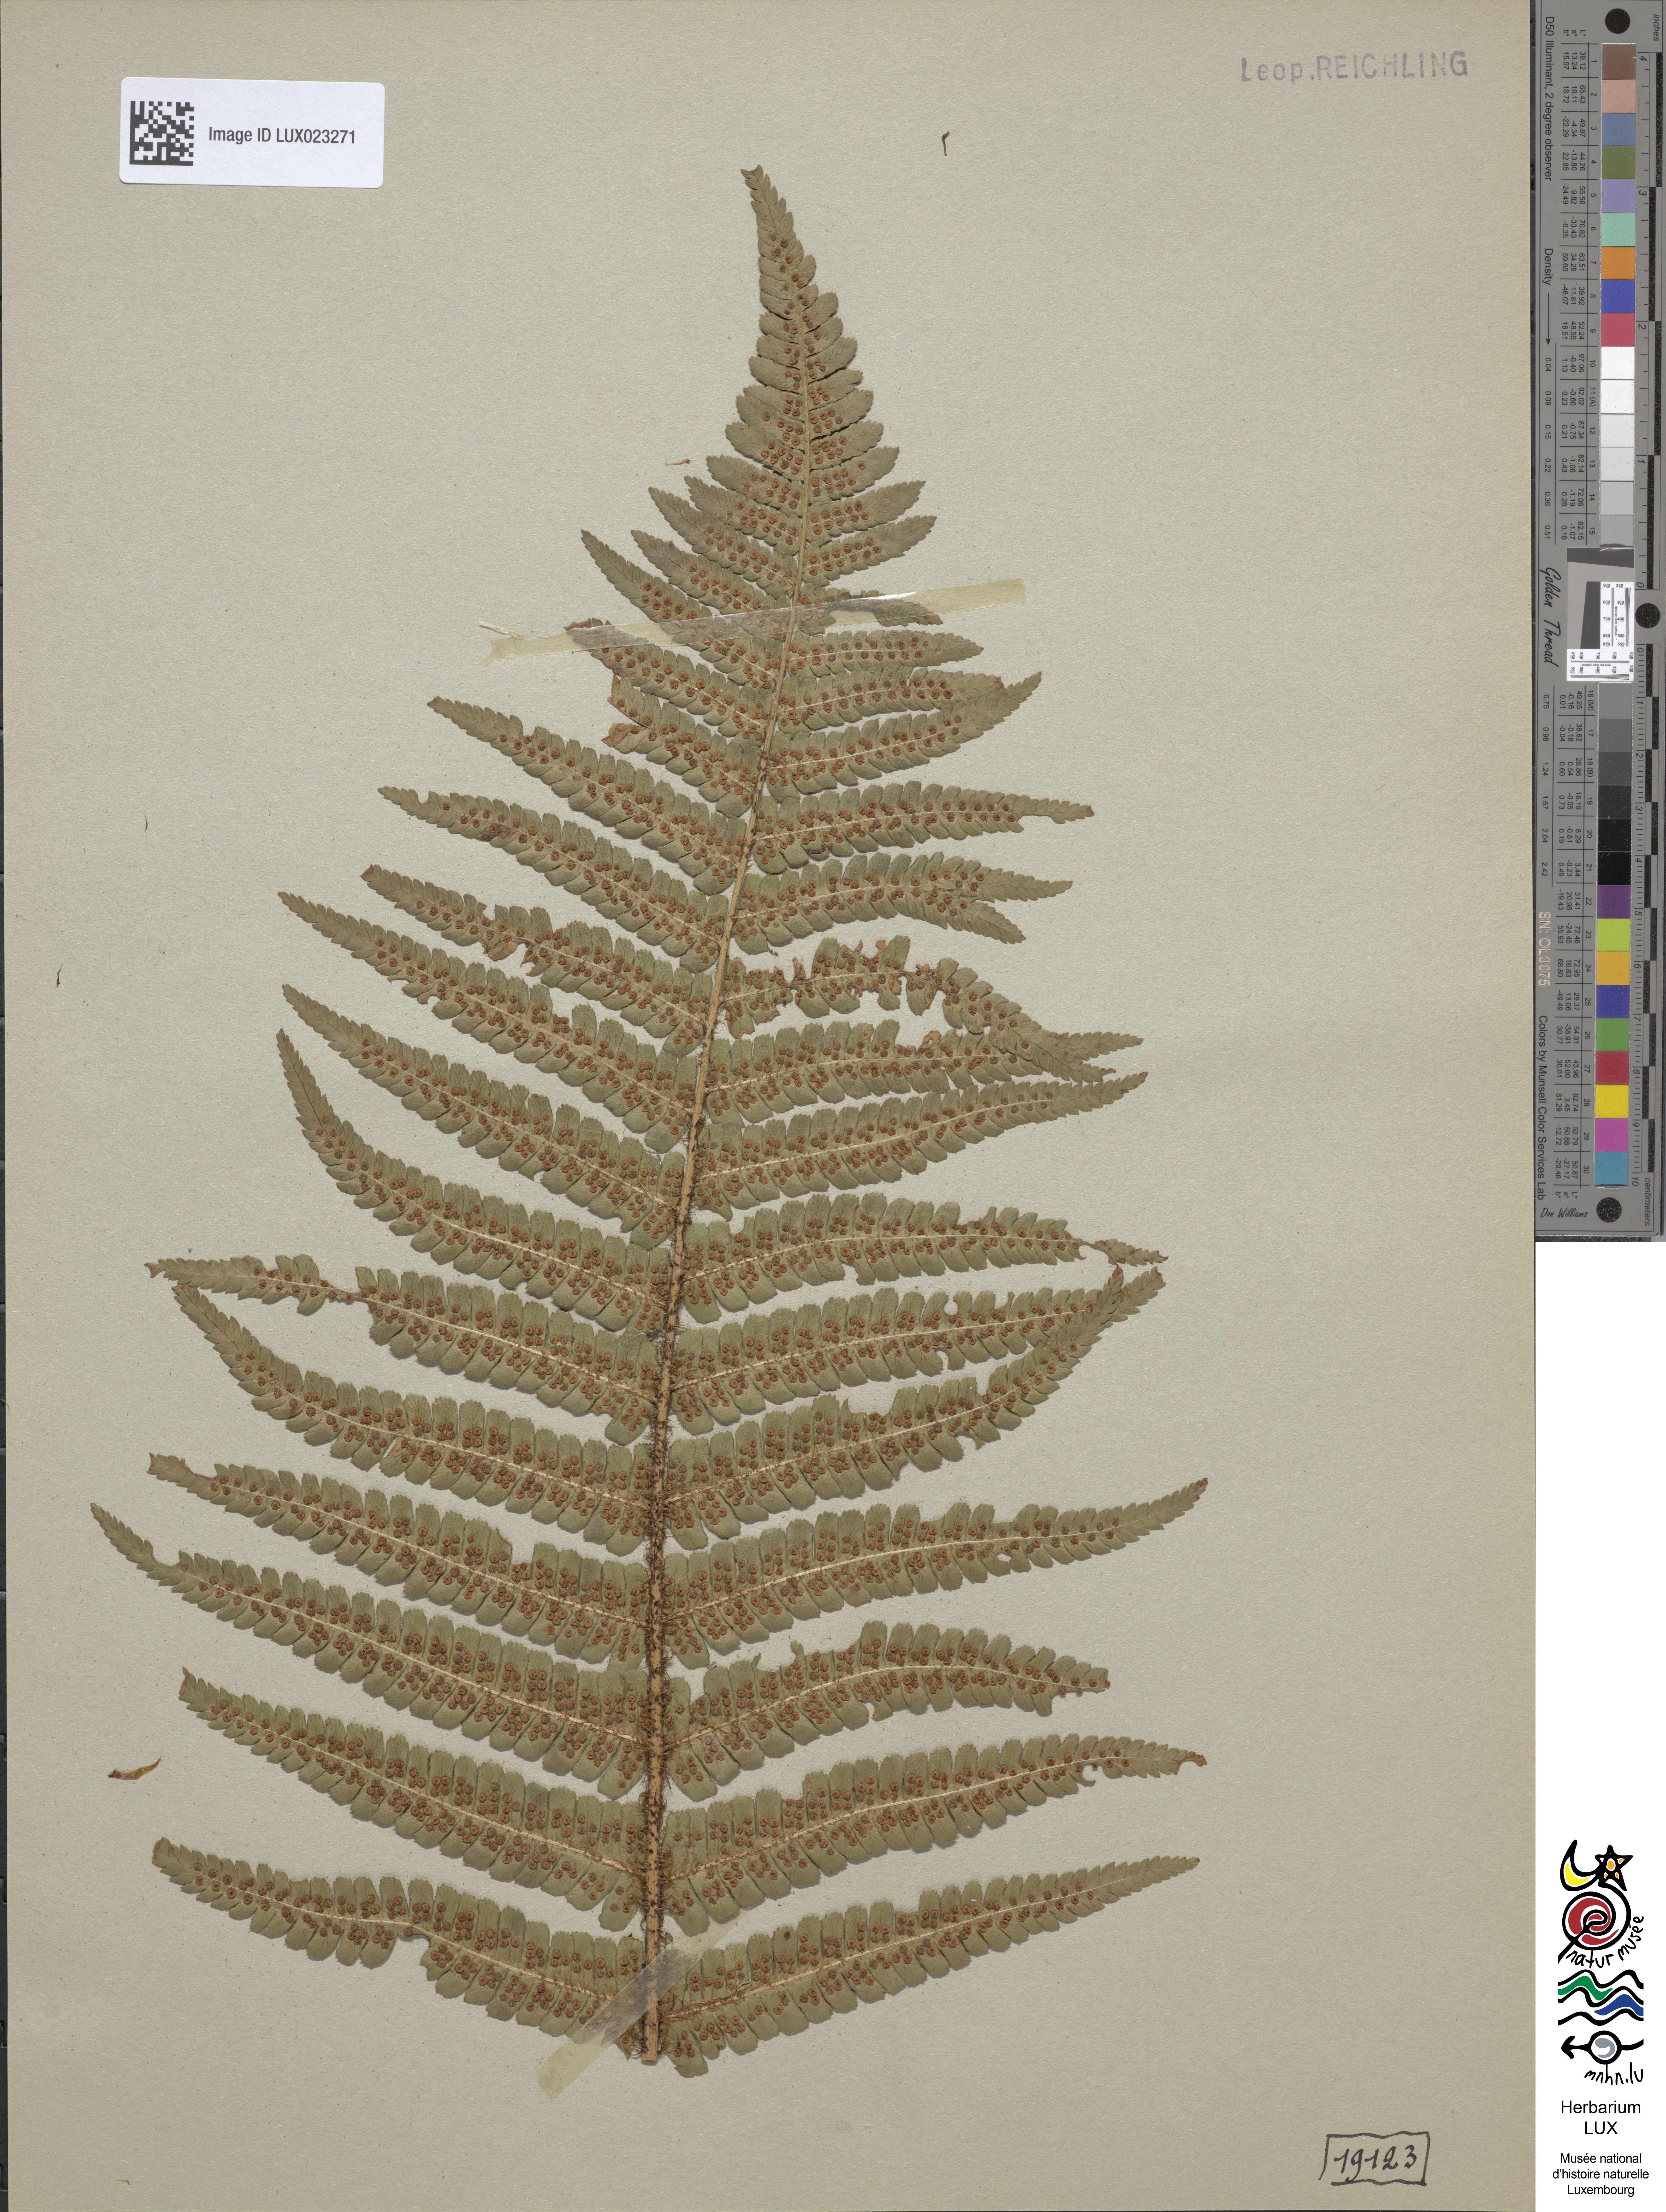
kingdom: Plantae
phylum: Tracheophyta
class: Polypodiopsida
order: Polypodiales
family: Dryopteridaceae
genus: Dryopteris
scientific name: Dryopteris
